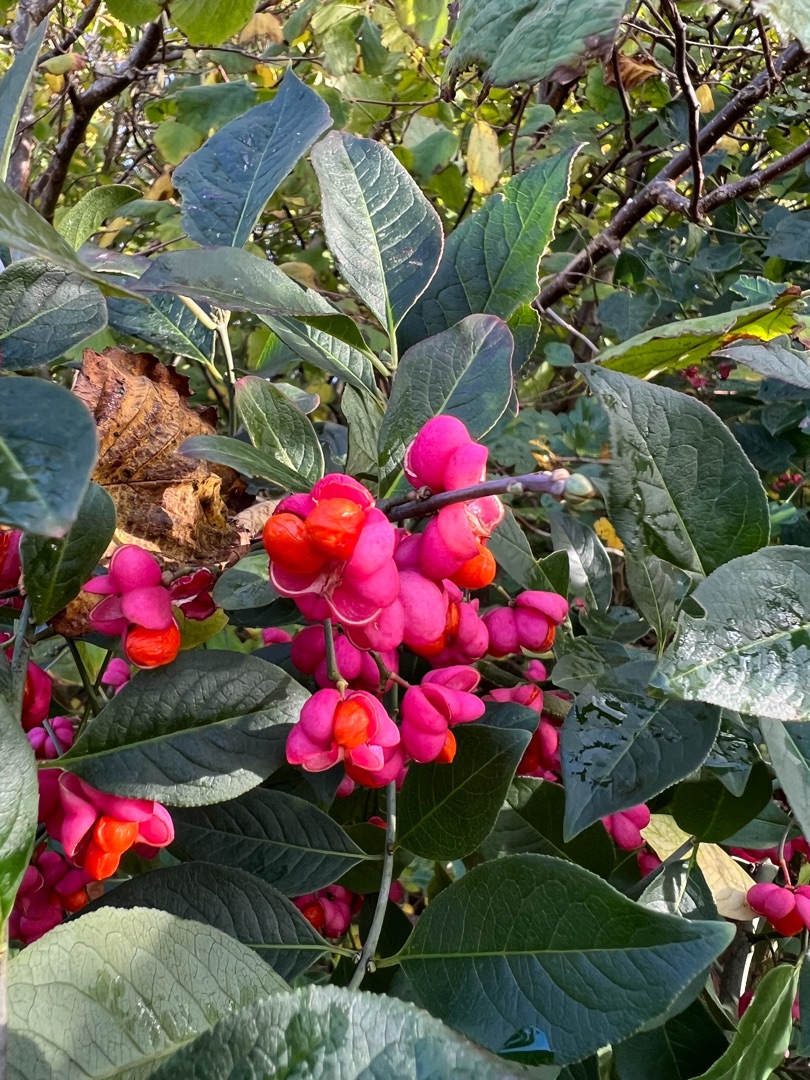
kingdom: Plantae
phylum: Tracheophyta
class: Magnoliopsida
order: Celastrales
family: Celastraceae
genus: Euonymus
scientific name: Euonymus europaeus
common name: Benved
